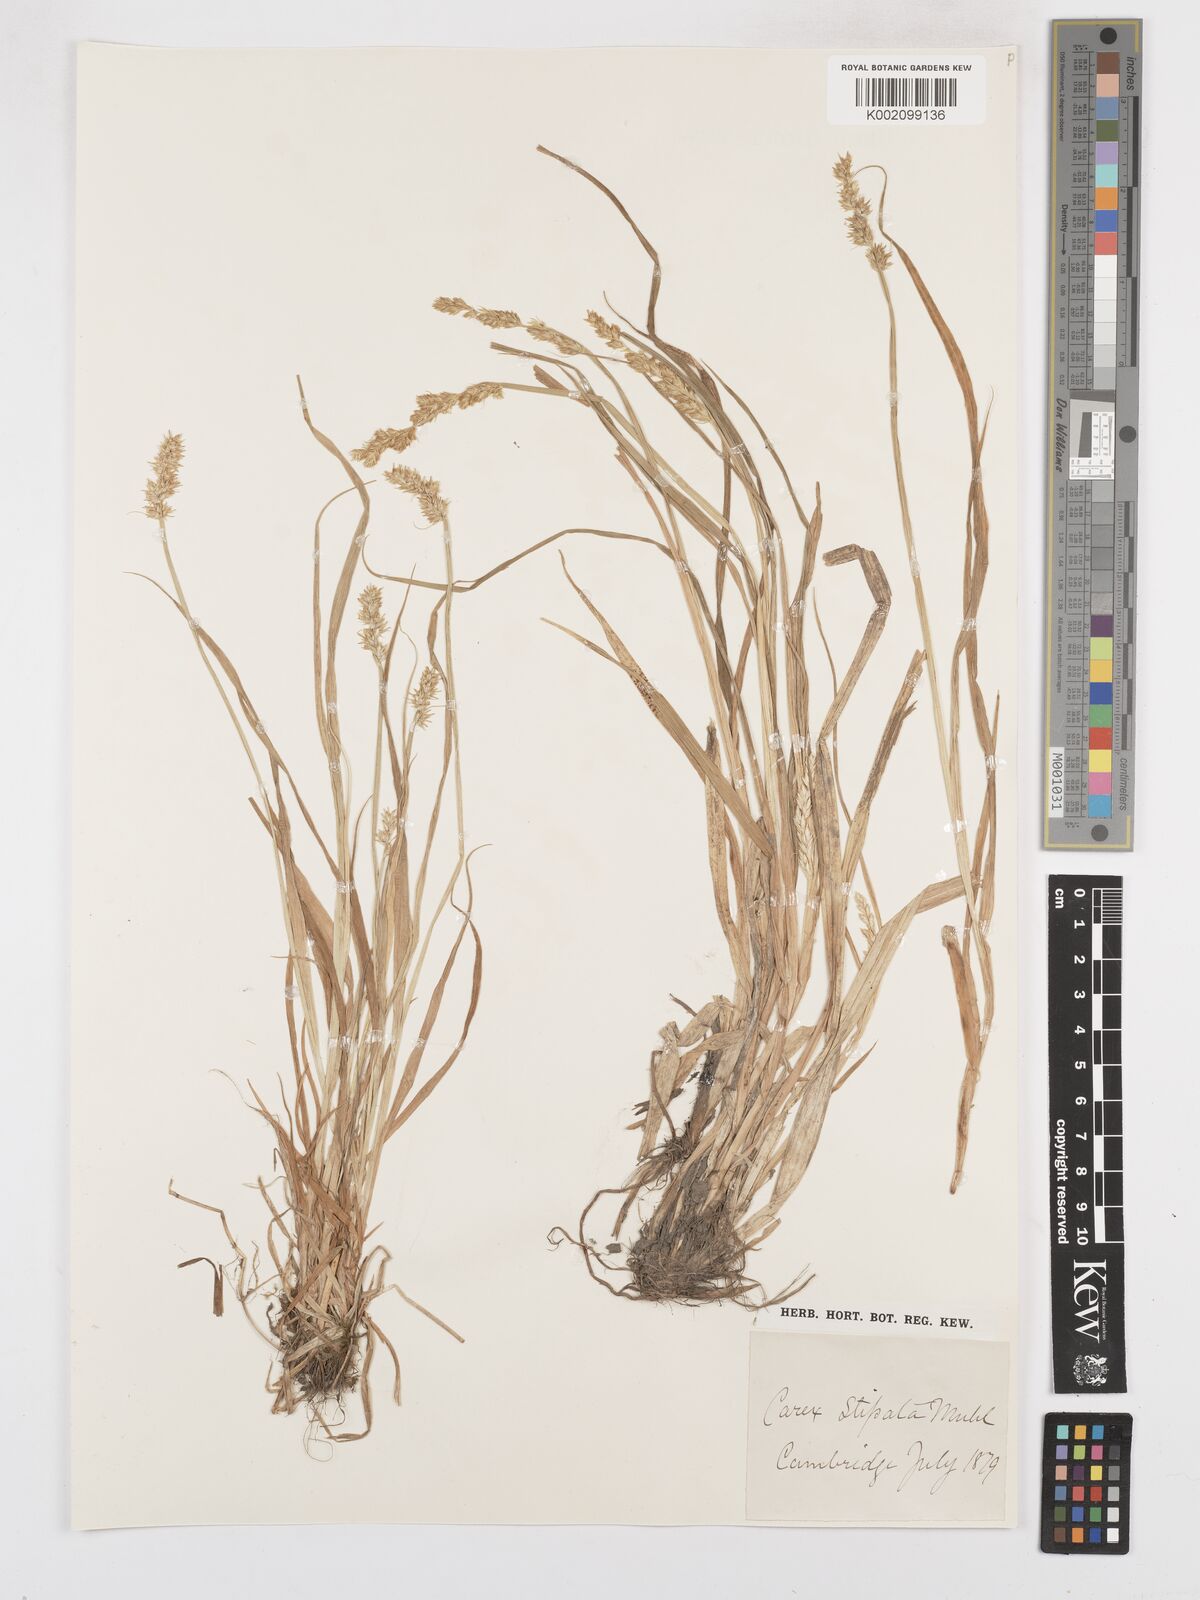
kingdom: Plantae
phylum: Tracheophyta
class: Liliopsida
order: Poales
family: Cyperaceae
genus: Carex
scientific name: Carex stipata
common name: Awl-fruited sedge
